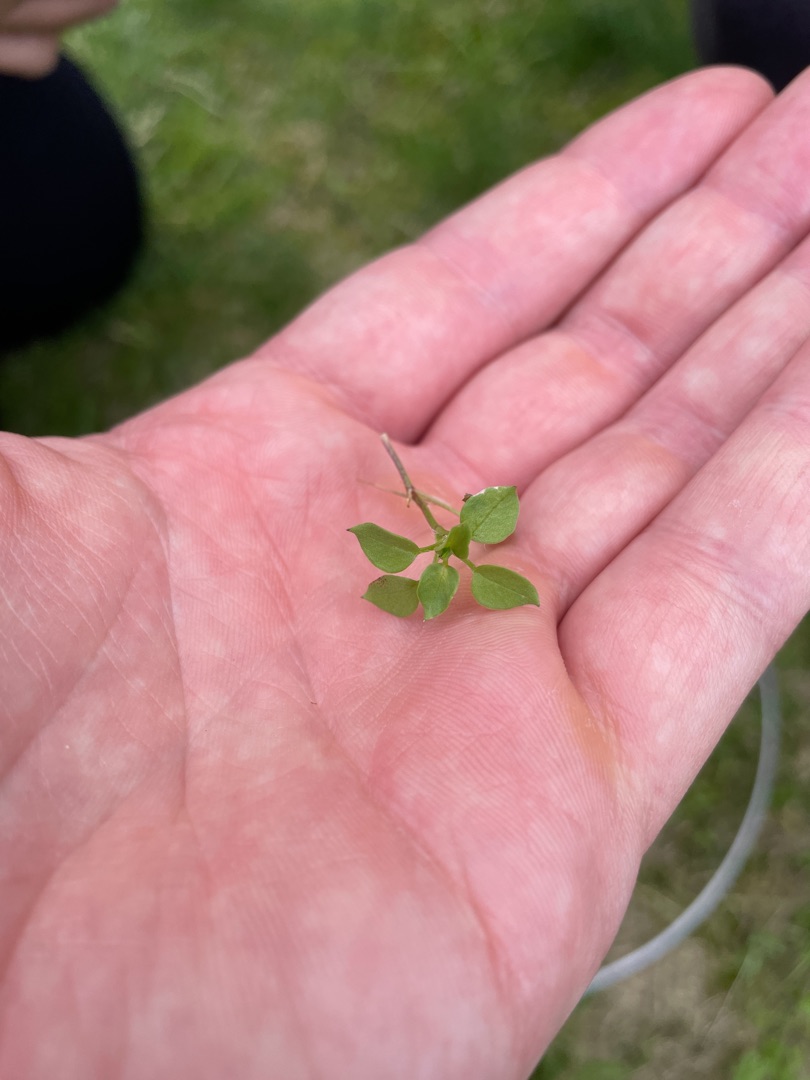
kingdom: Plantae
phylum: Tracheophyta
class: Magnoliopsida
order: Caryophyllales
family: Caryophyllaceae
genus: Stellaria
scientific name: Stellaria media
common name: Almindelig fuglegræs
